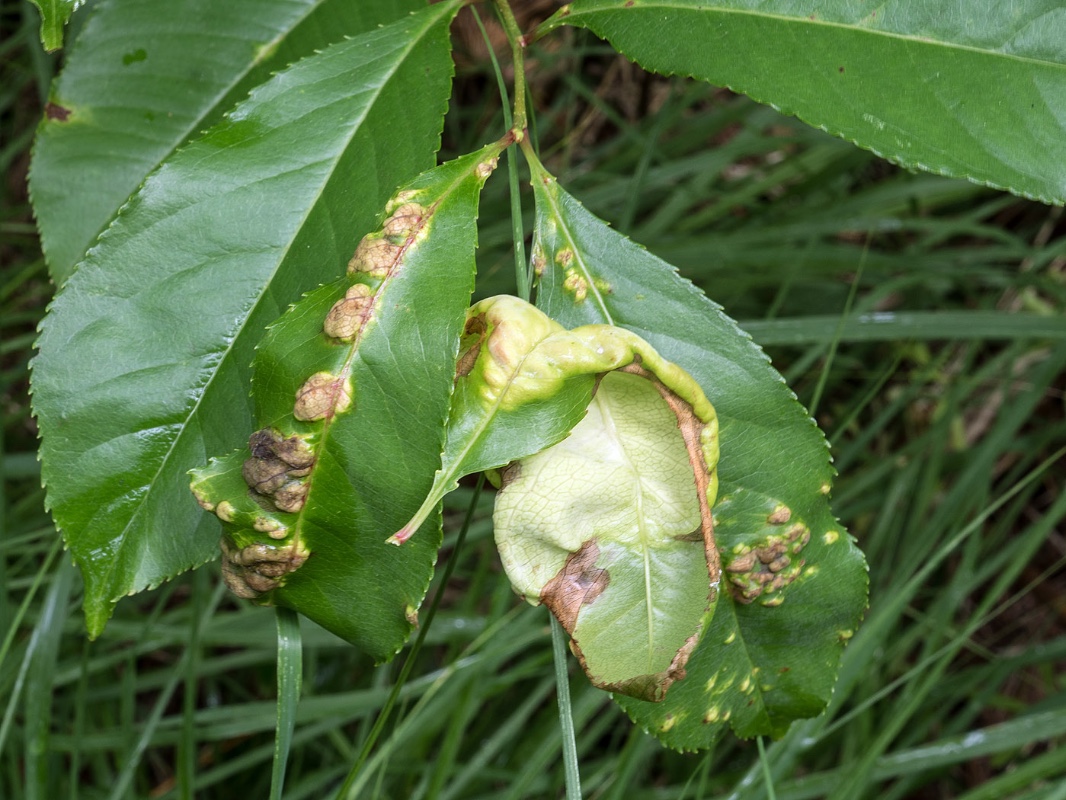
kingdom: Fungi
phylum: Ascomycota
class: Taphrinomycetes
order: Taphrinales
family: Taphrinaceae
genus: Taphrina
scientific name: Taphrina farlowii
